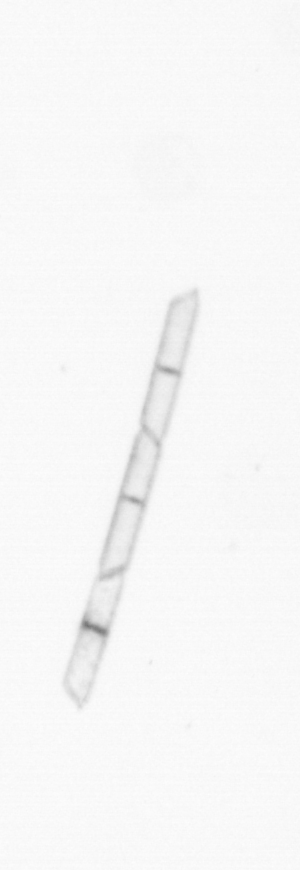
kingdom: Chromista
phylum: Ochrophyta
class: Bacillariophyceae
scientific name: Bacillariophyceae
